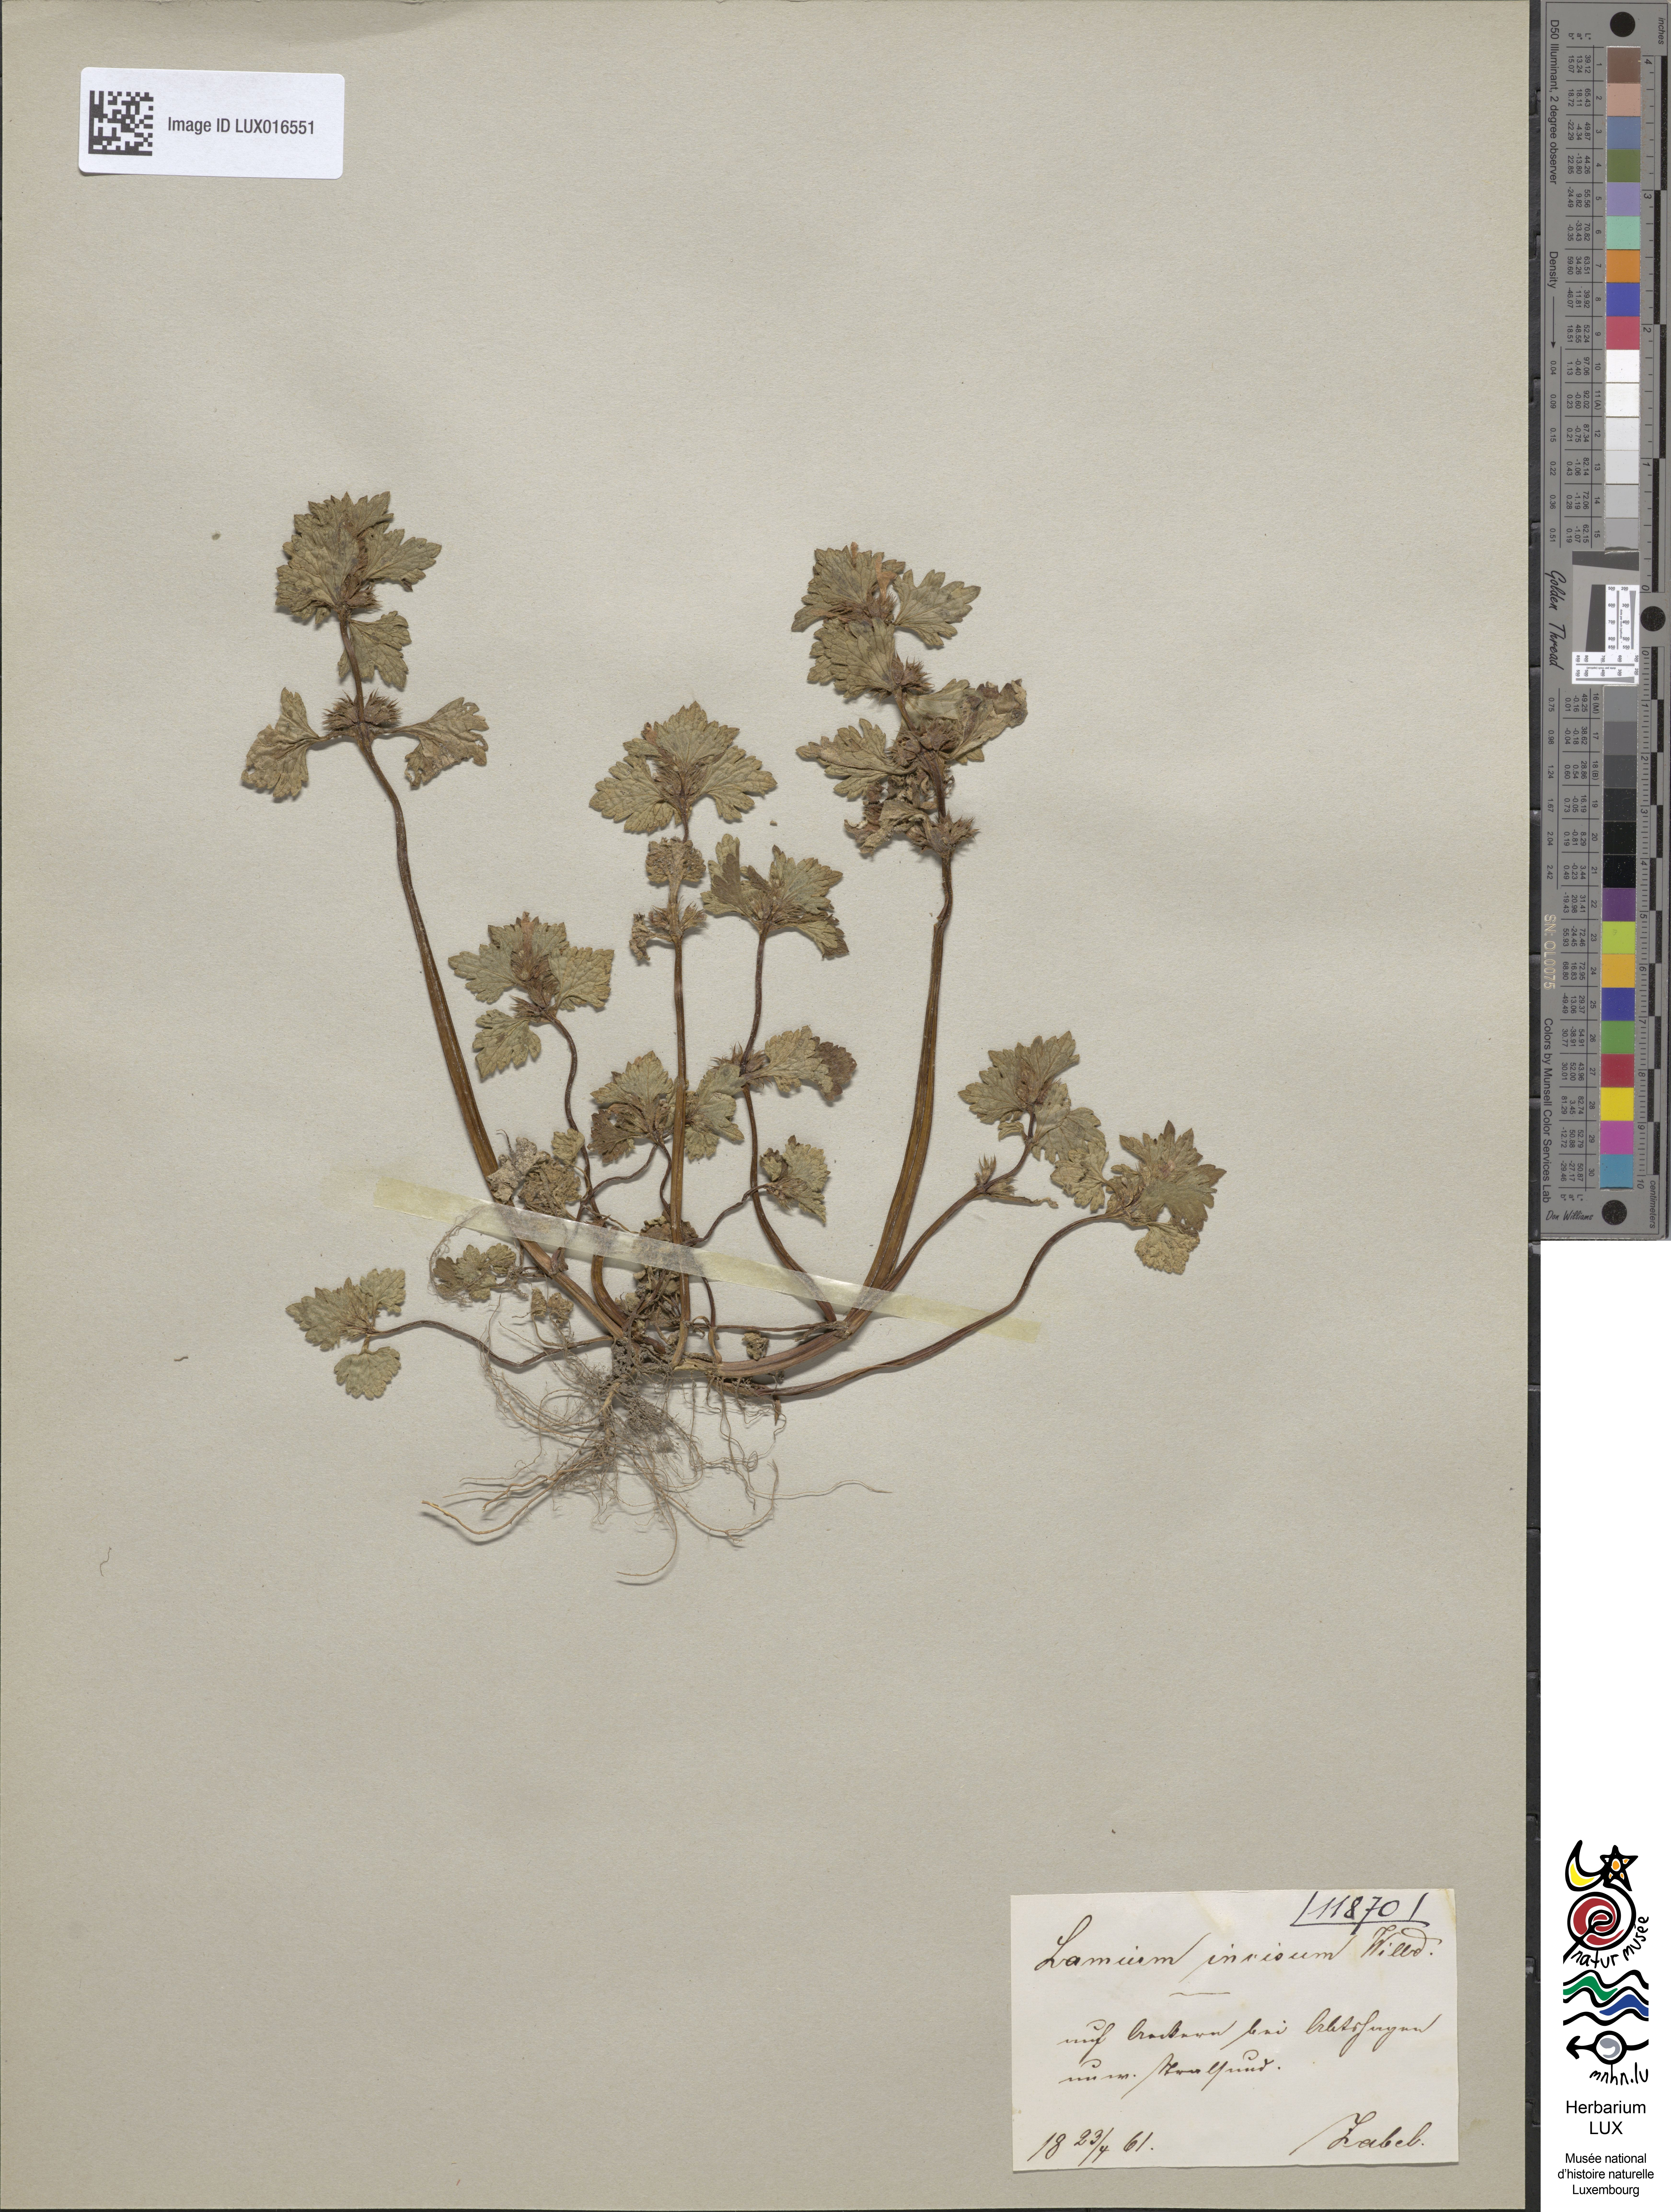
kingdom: Plantae
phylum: Tracheophyta
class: Magnoliopsida
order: Lamiales
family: Lamiaceae
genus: Lamium
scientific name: Lamium hybridum
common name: Cut-leaved dead-nettle
